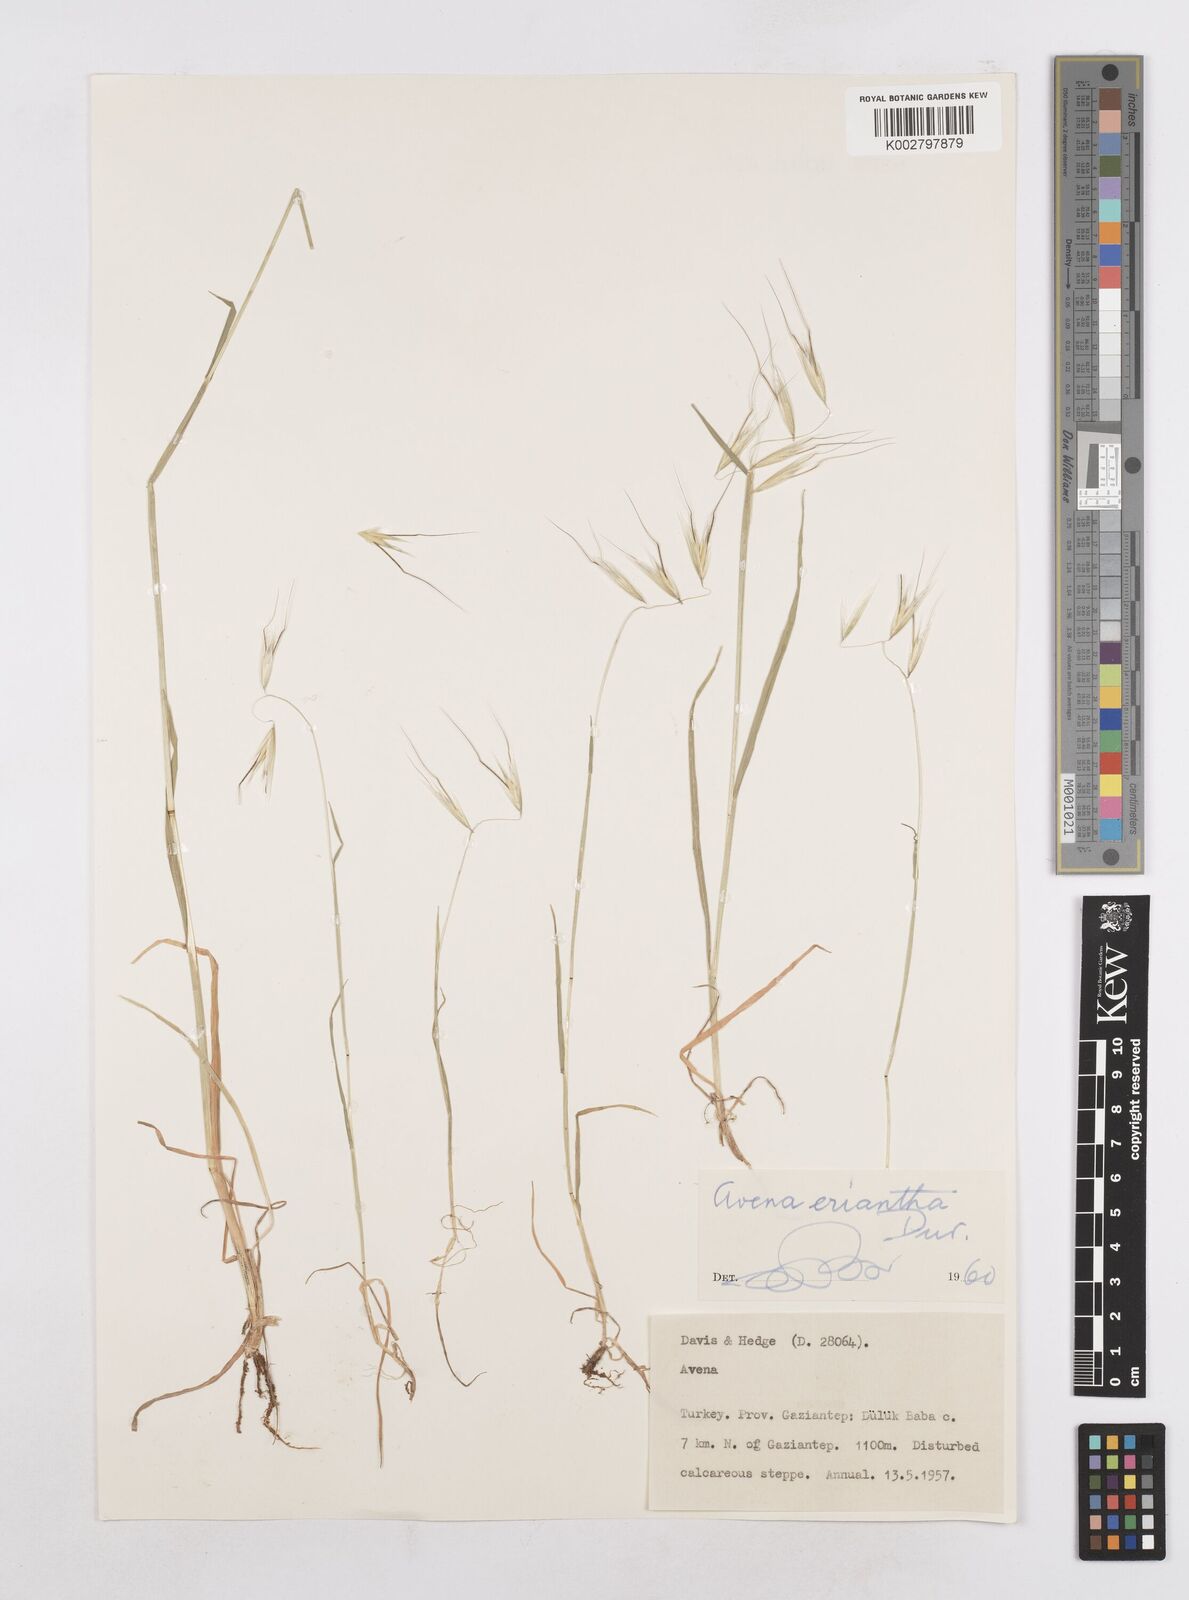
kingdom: Plantae
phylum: Tracheophyta
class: Liliopsida
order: Poales
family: Poaceae
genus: Avena
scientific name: Avena eriantha
